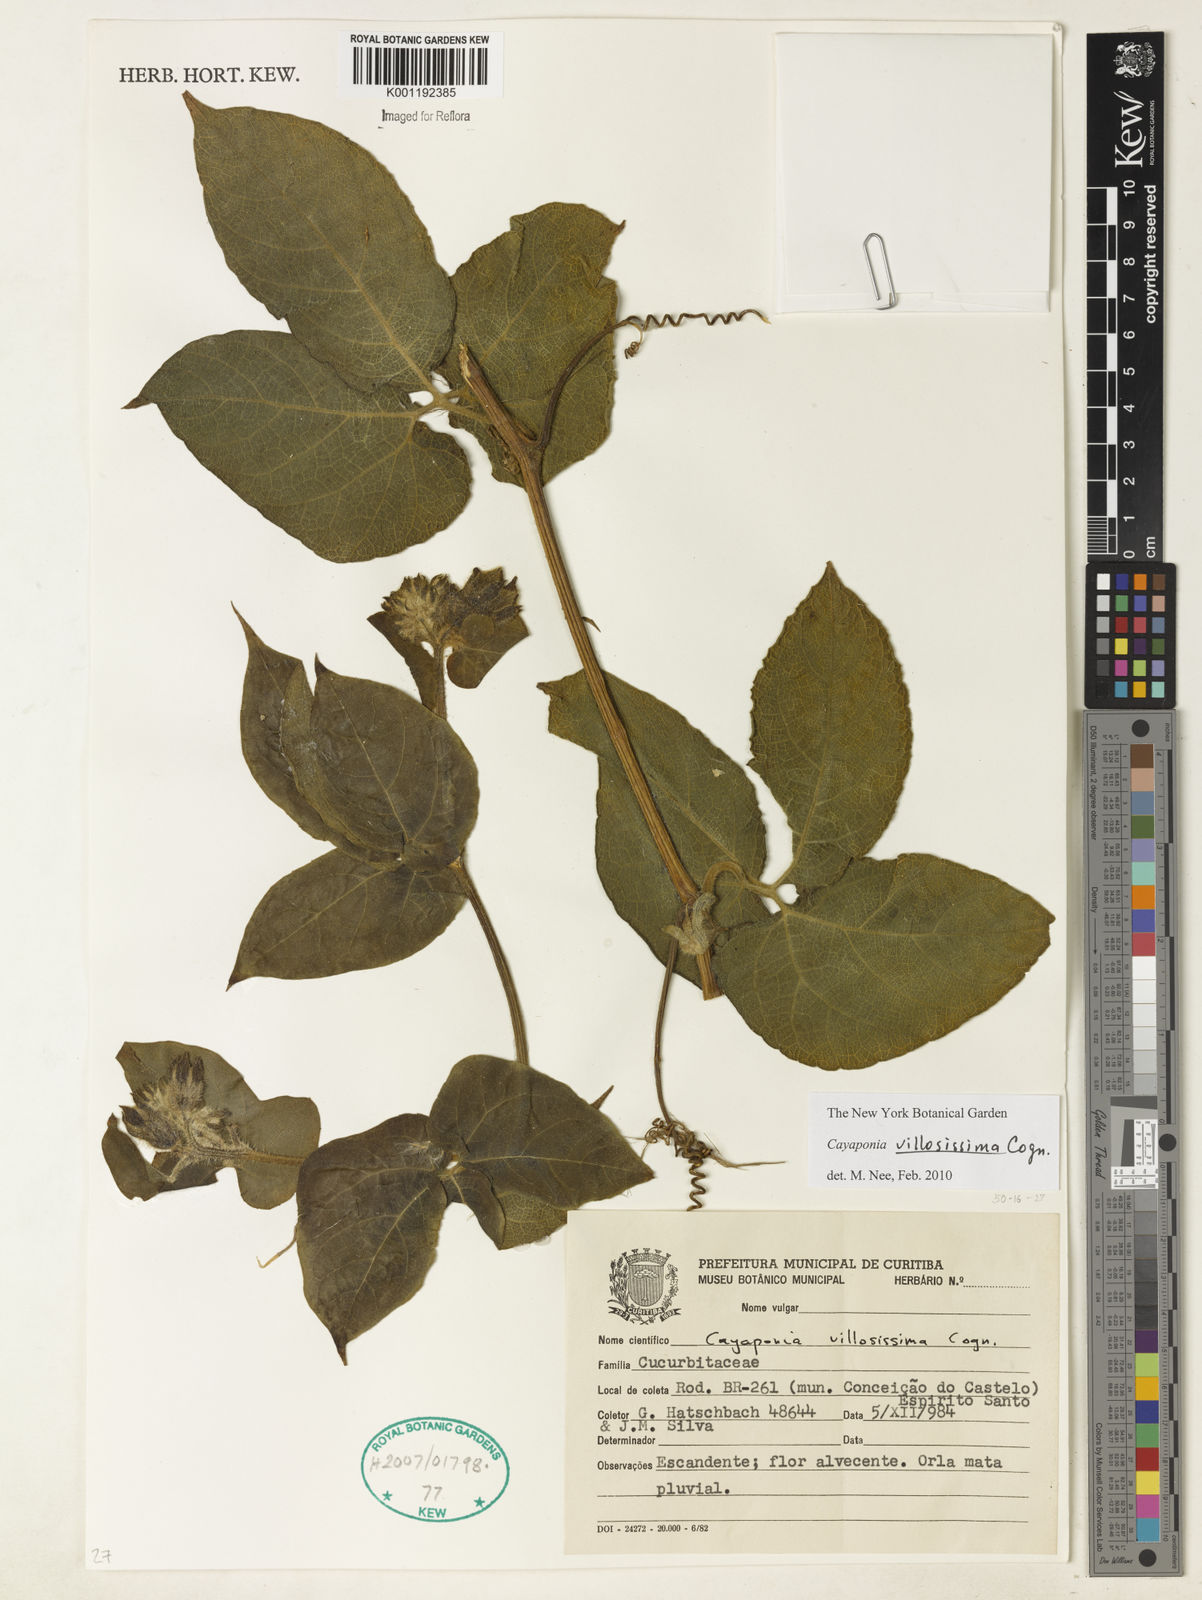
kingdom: Plantae
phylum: Tracheophyta
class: Magnoliopsida
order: Cucurbitales
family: Cucurbitaceae
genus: Cayaponia
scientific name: Cayaponia villosissima
